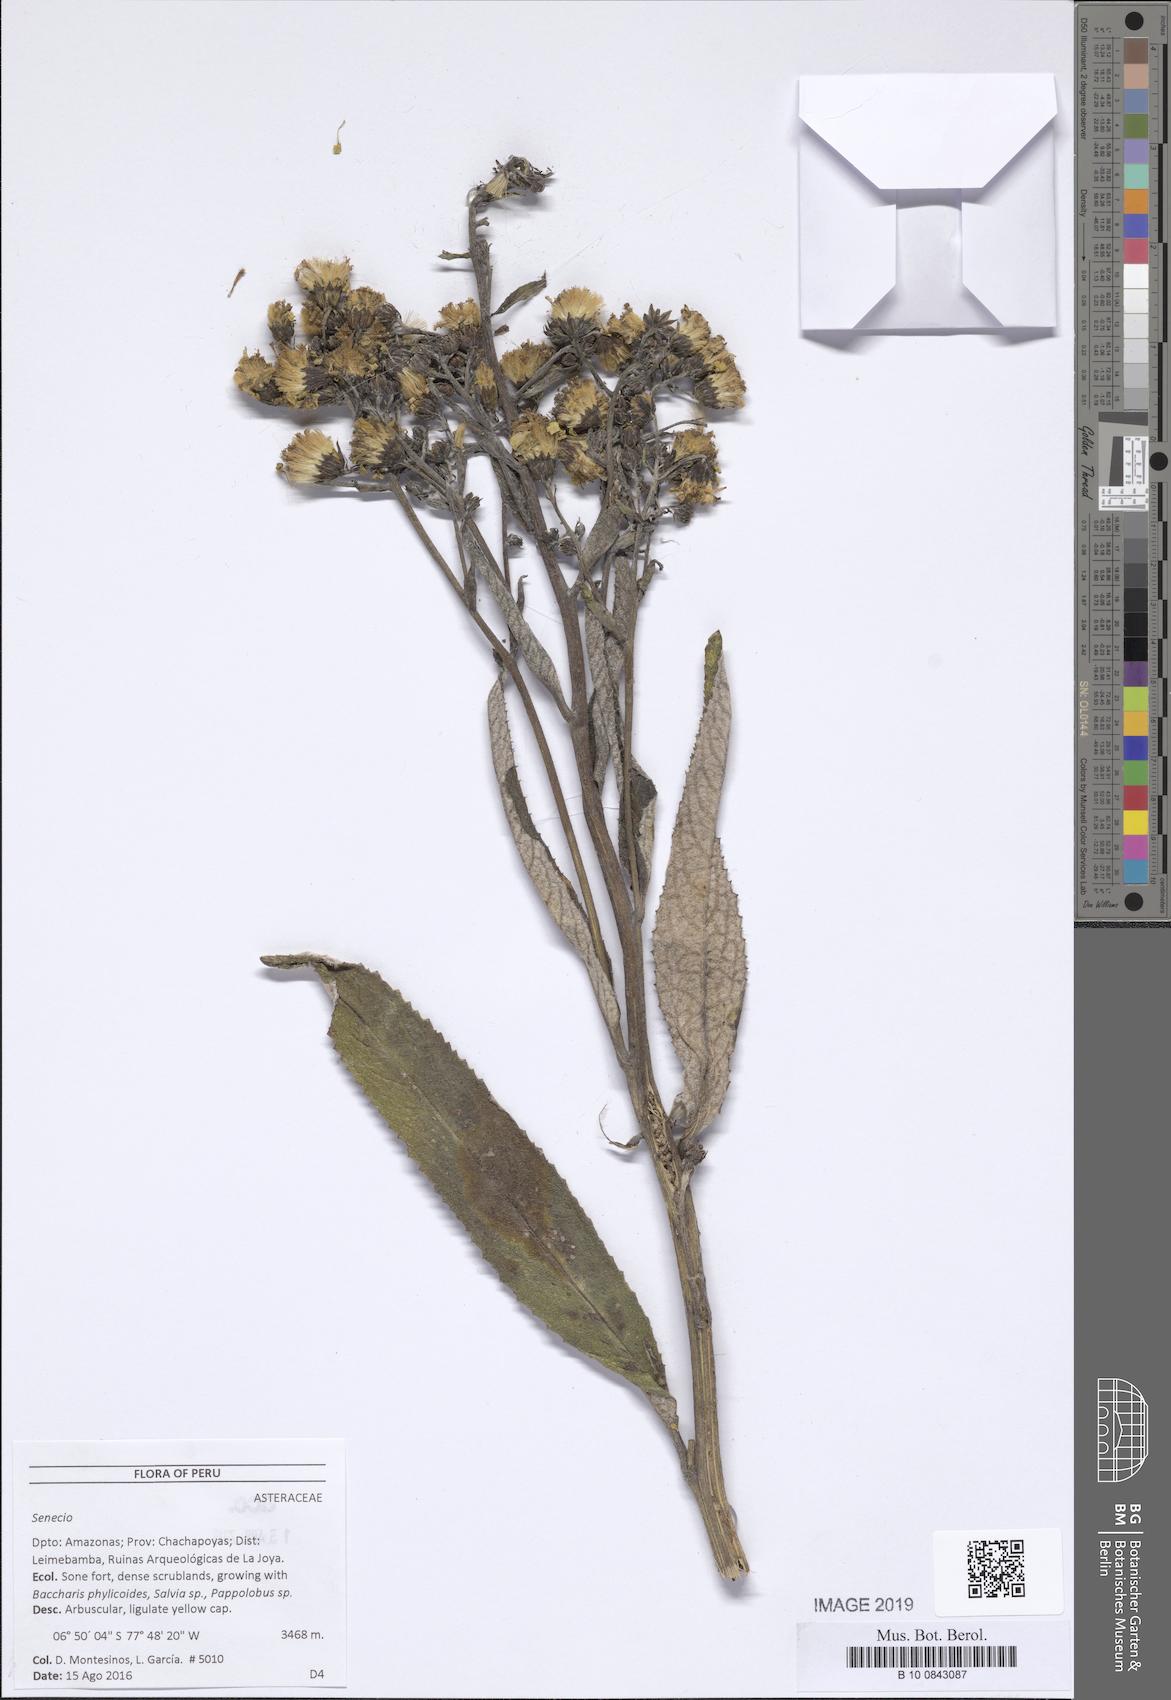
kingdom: Plantae
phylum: Tracheophyta
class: Magnoliopsida
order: Asterales
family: Asteraceae
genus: Dendrophorbium
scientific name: Dendrophorbium chopinii
